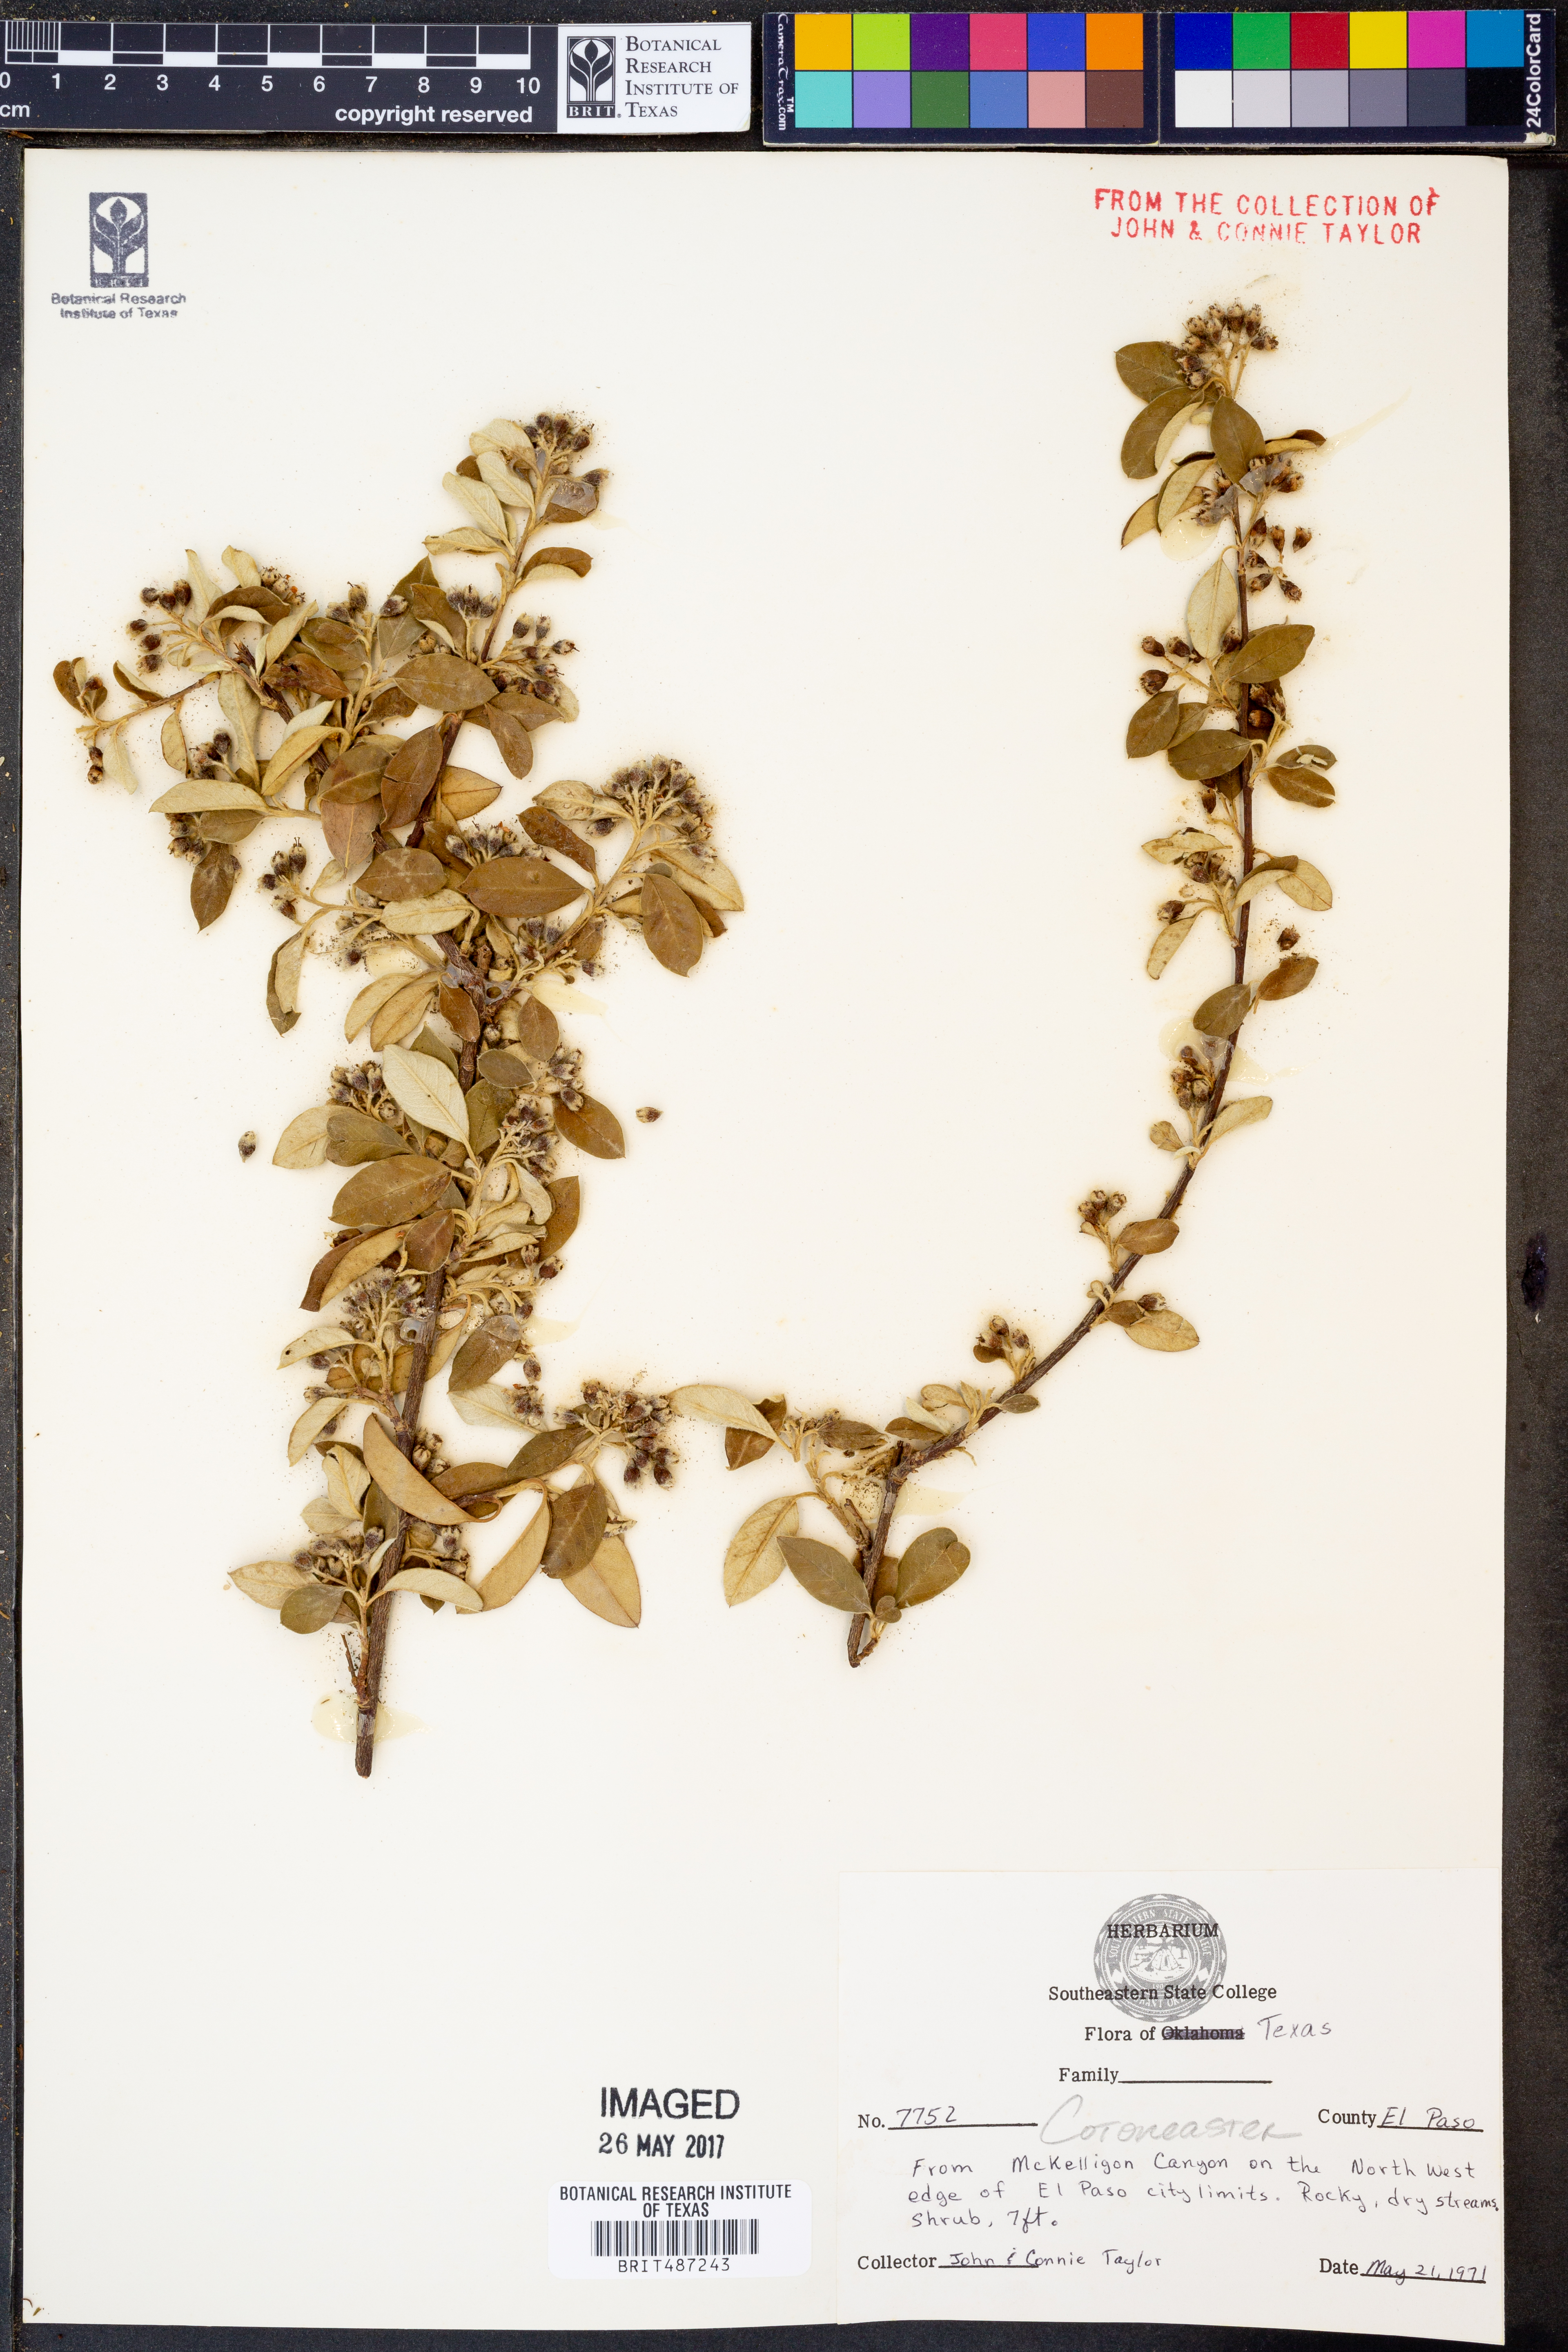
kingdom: Plantae
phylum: Tracheophyta
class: Magnoliopsida
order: Rosales
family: Rosaceae
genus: Cotoneaster
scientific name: Cotoneaster
